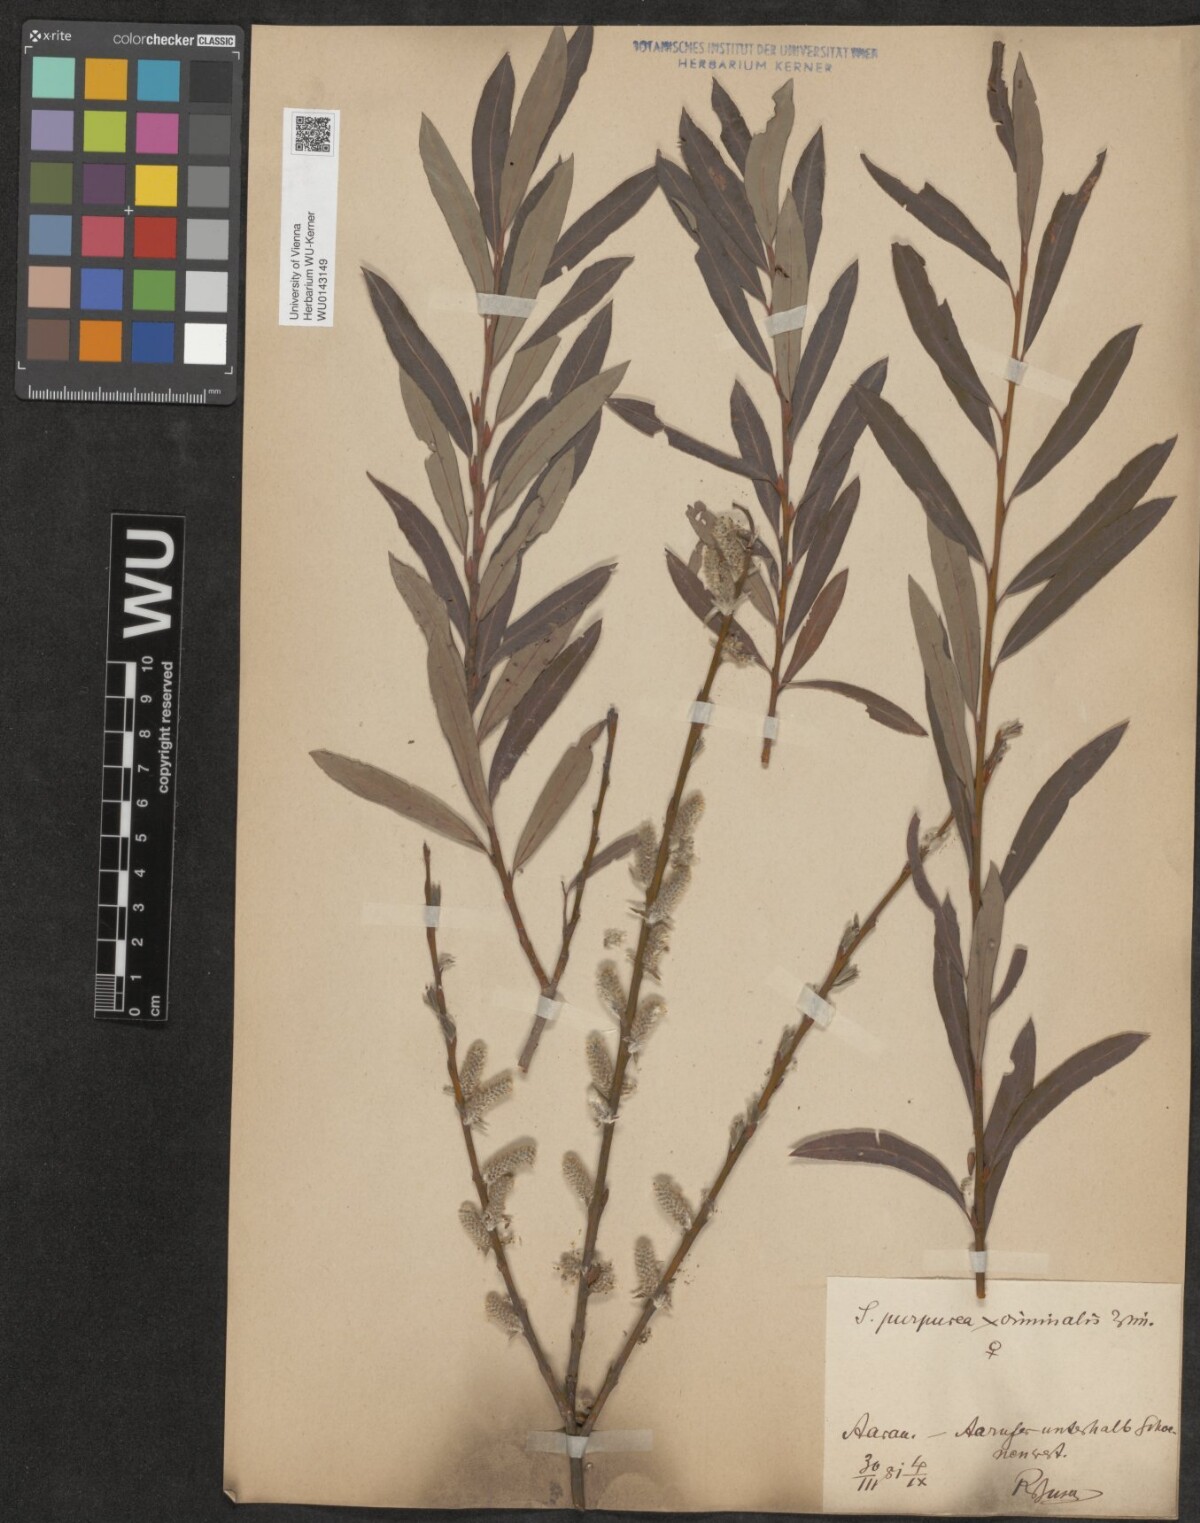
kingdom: Plantae
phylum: Tracheophyta
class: Magnoliopsida
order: Malpighiales
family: Salicaceae
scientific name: Salicaceae
